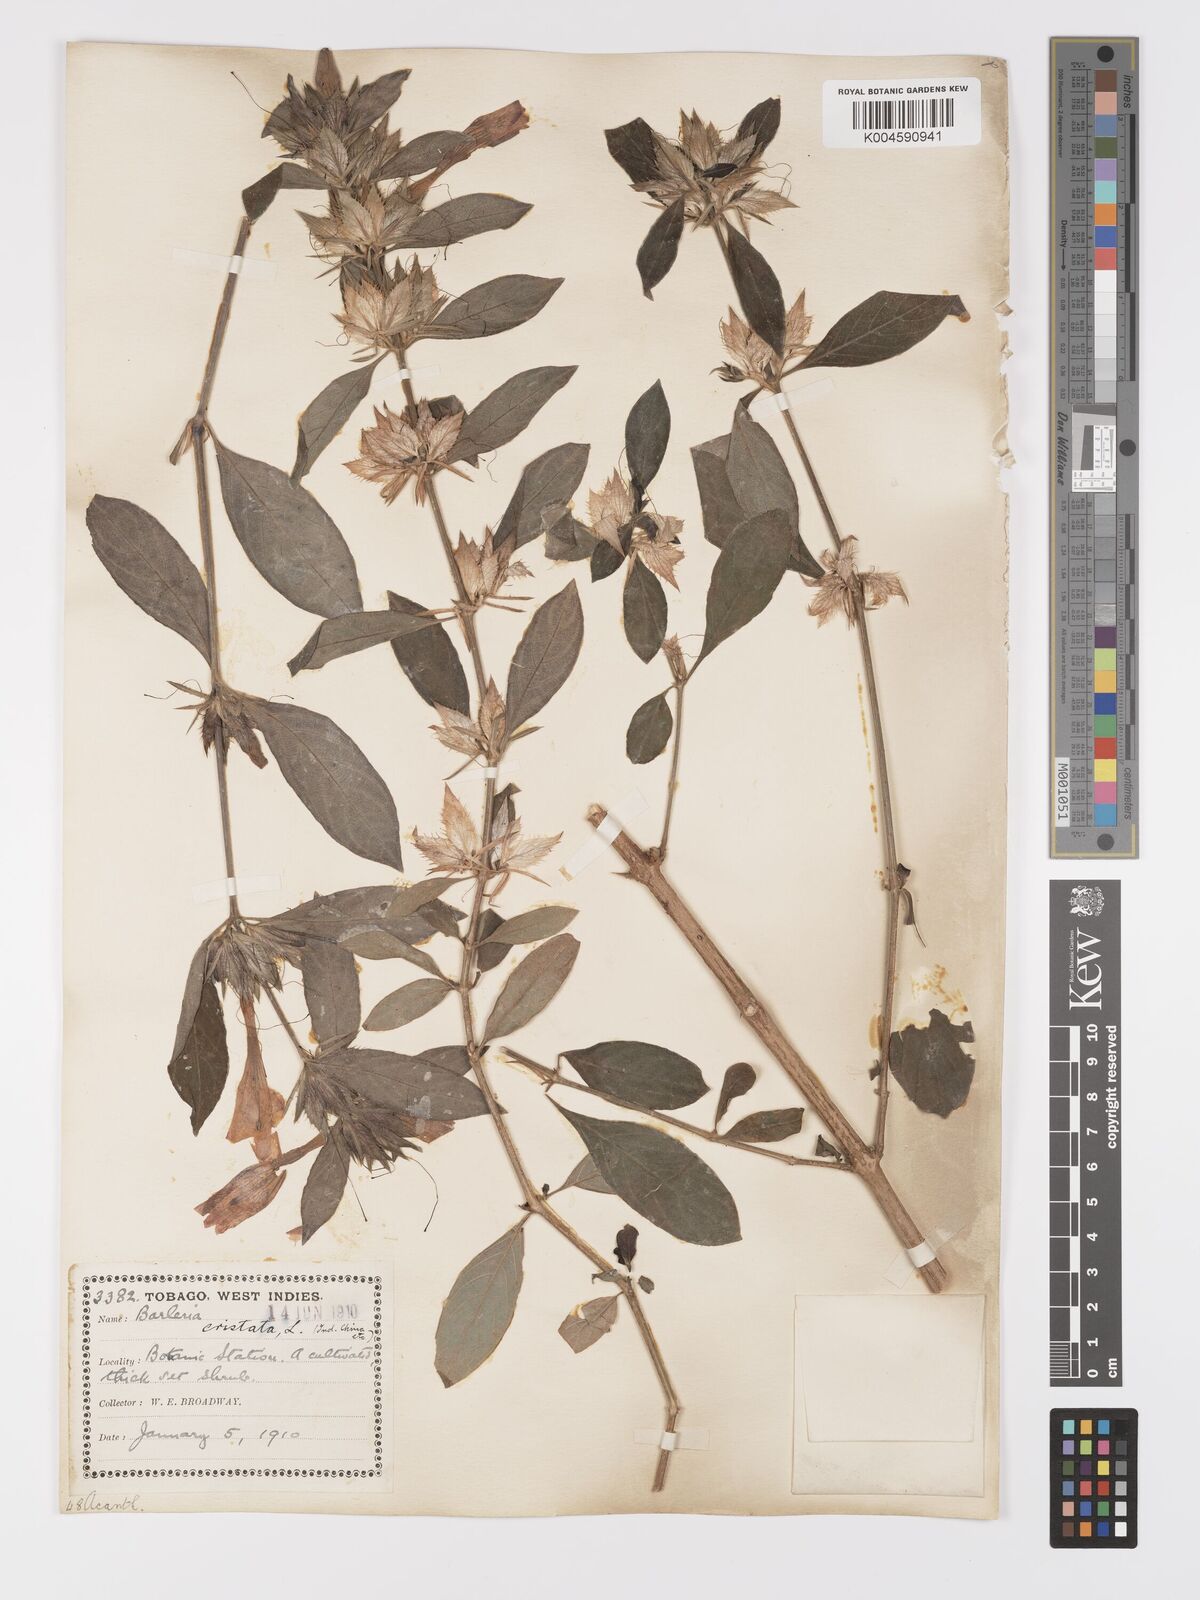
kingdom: Plantae
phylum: Tracheophyta
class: Magnoliopsida
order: Lamiales
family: Acanthaceae
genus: Barleria
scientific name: Barleria cristata
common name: Crested philippine violet
